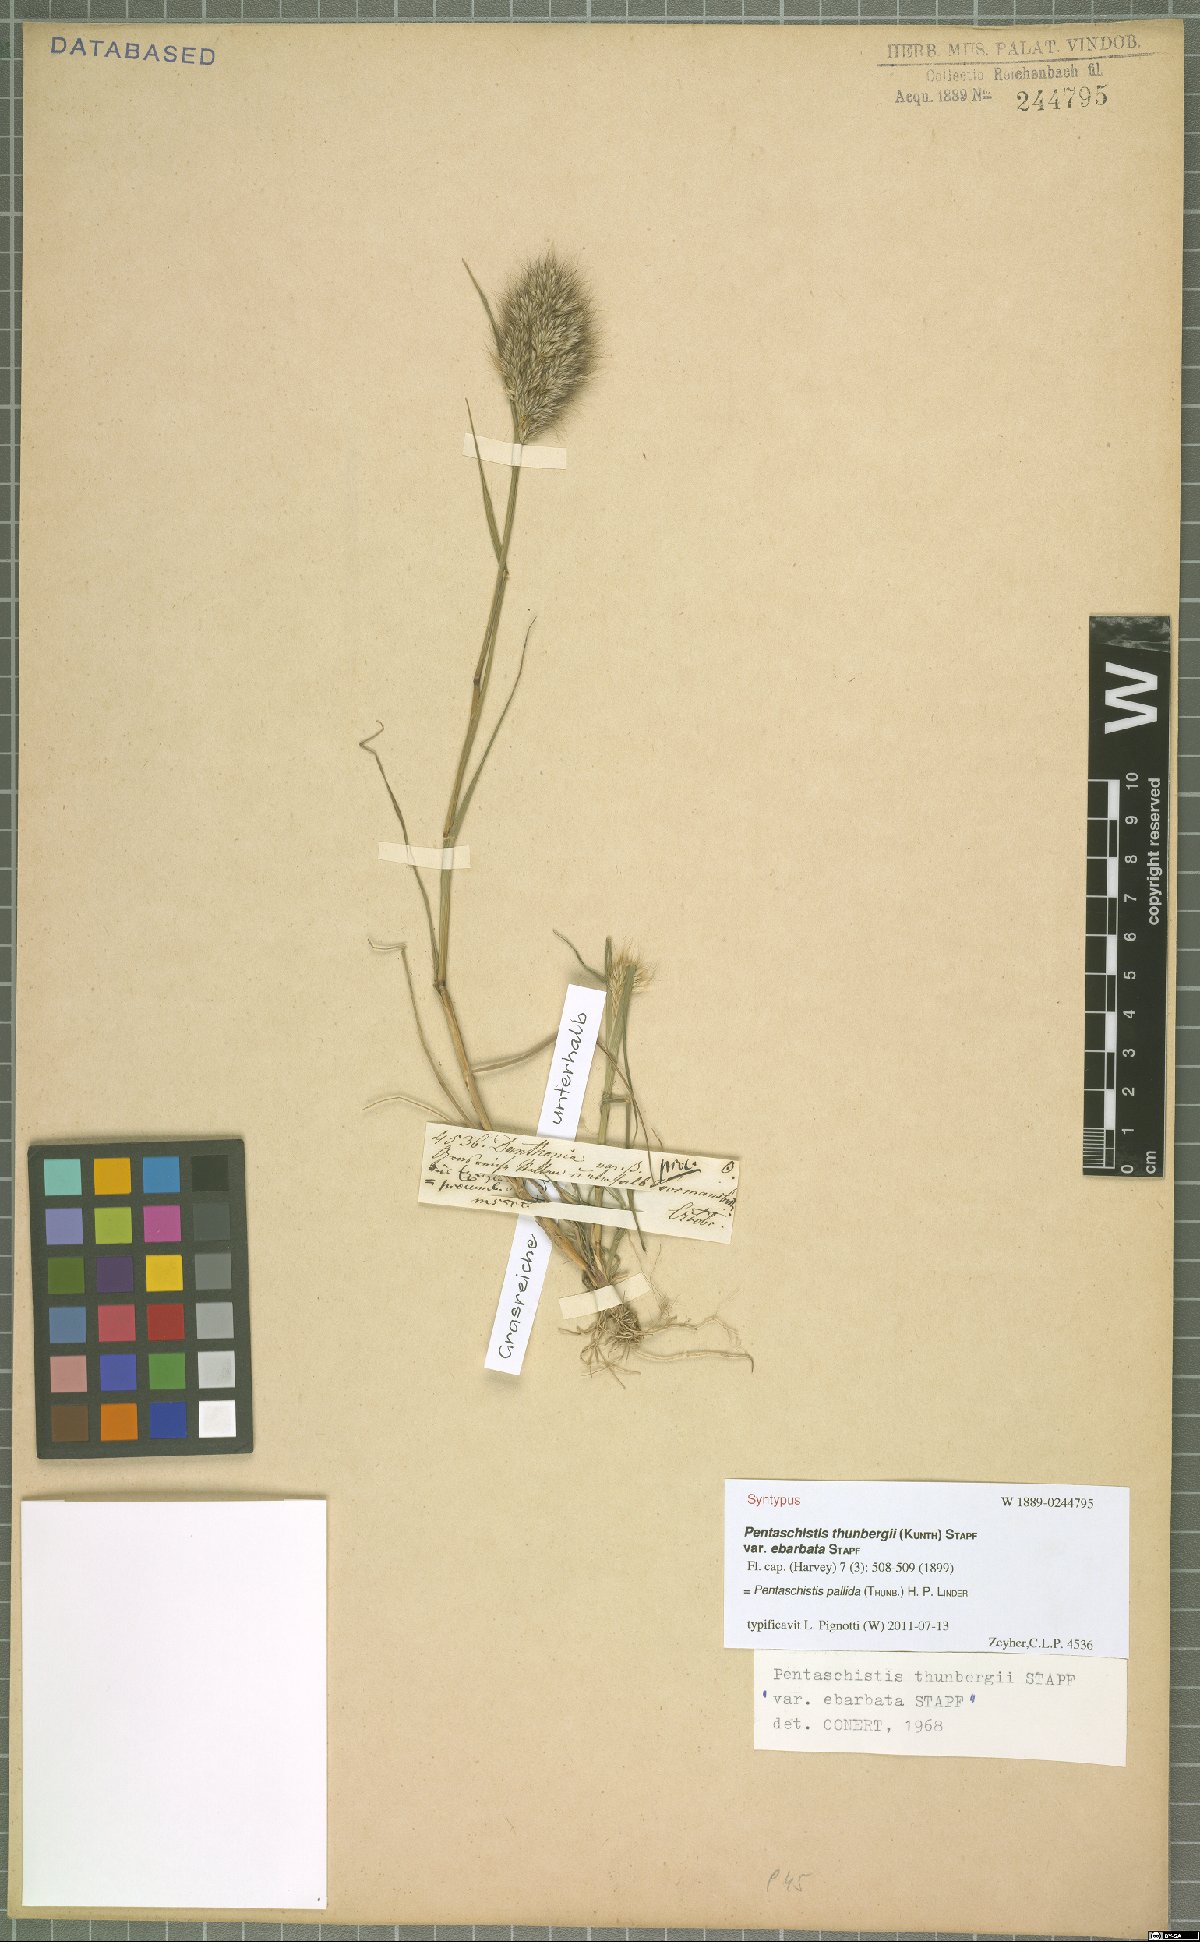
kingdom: Plantae
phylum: Tracheophyta
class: Liliopsida
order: Poales
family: Poaceae
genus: Pentameris
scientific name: Pentameris pallida
